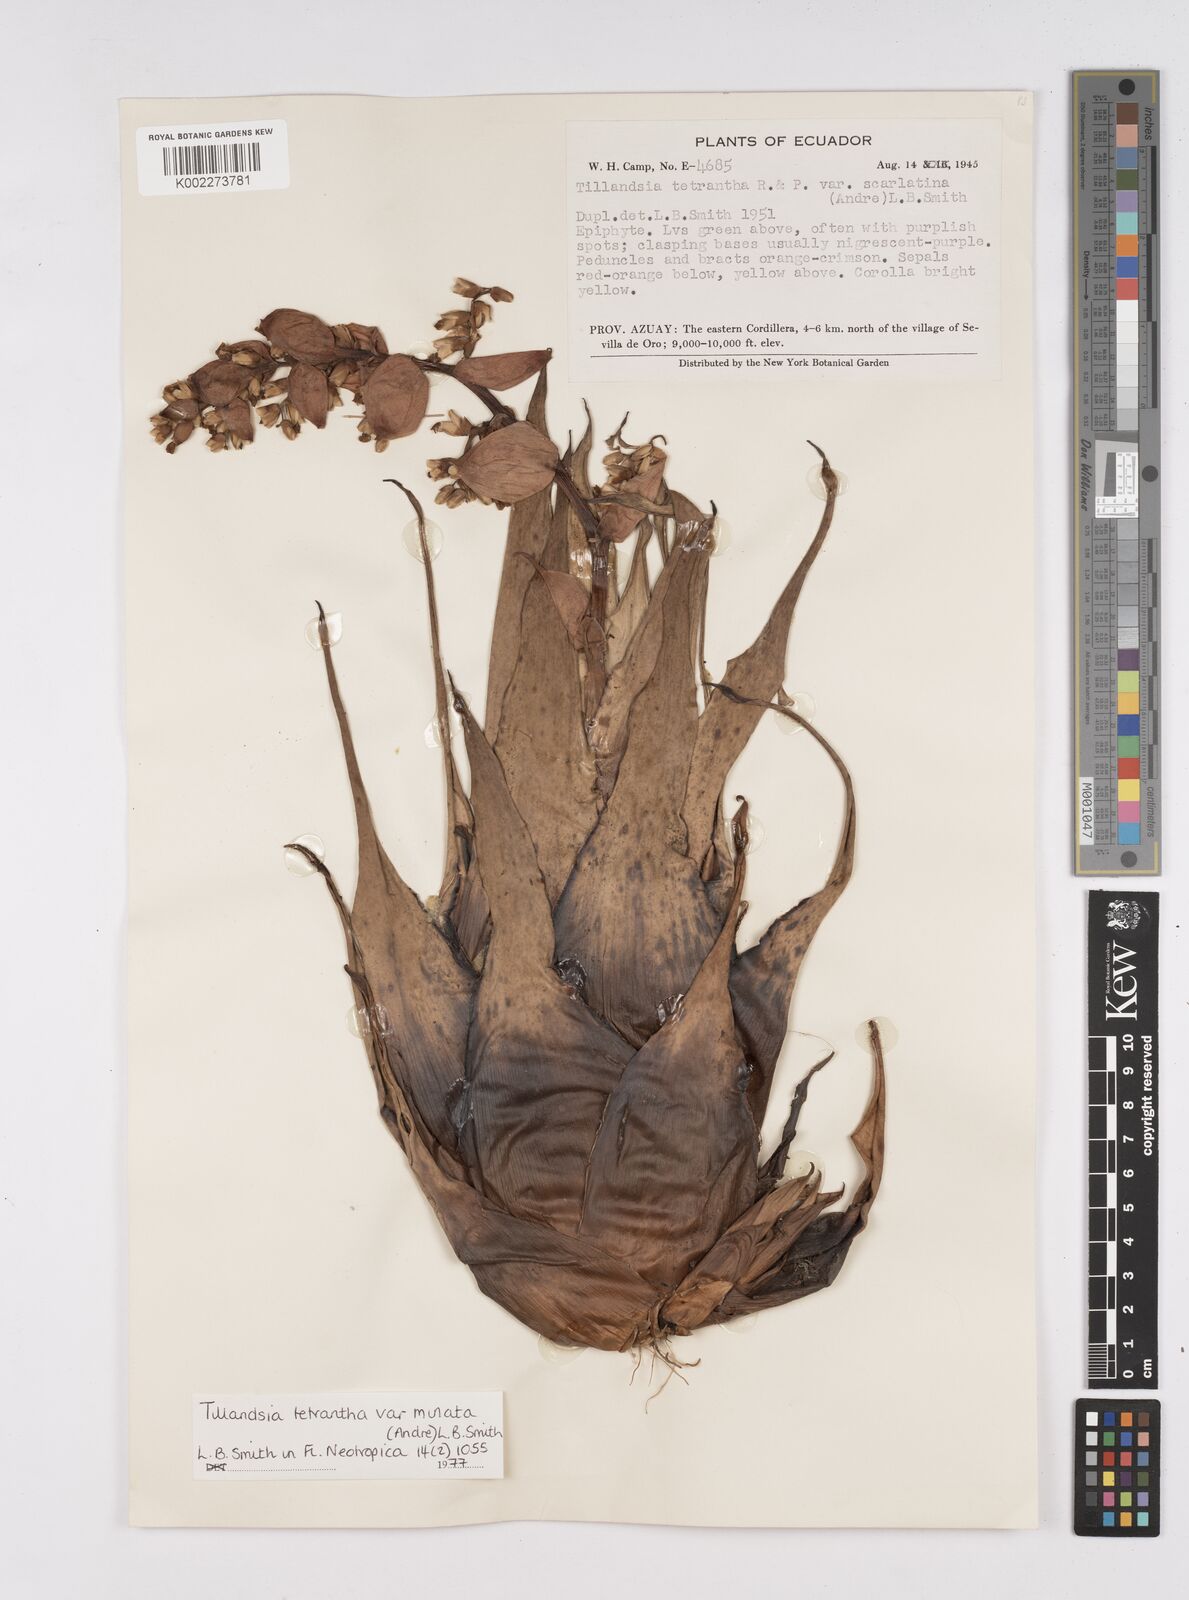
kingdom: Plantae
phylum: Tracheophyta
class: Liliopsida
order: Poales
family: Bromeliaceae
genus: Racinaea
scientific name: Racinaea tetrantha
